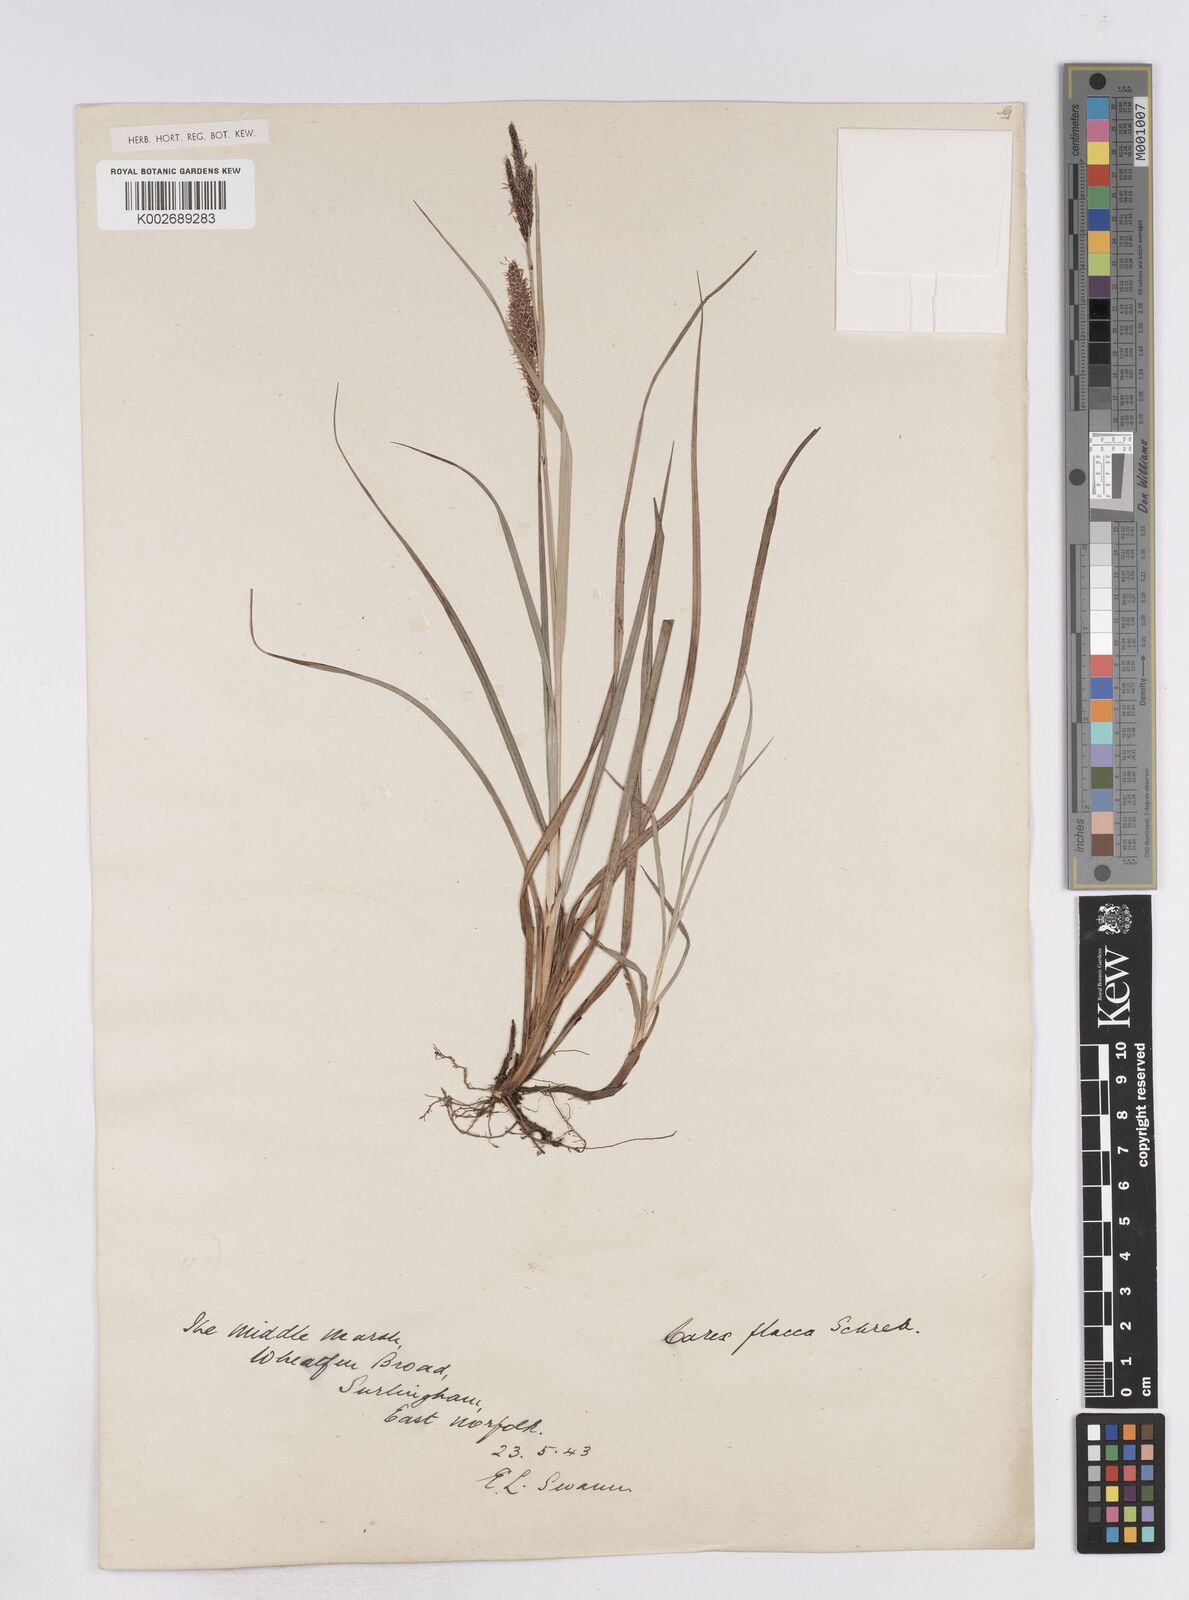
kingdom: Plantae
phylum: Tracheophyta
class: Liliopsida
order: Poales
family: Cyperaceae
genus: Carex
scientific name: Carex flacca
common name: Glaucous sedge
